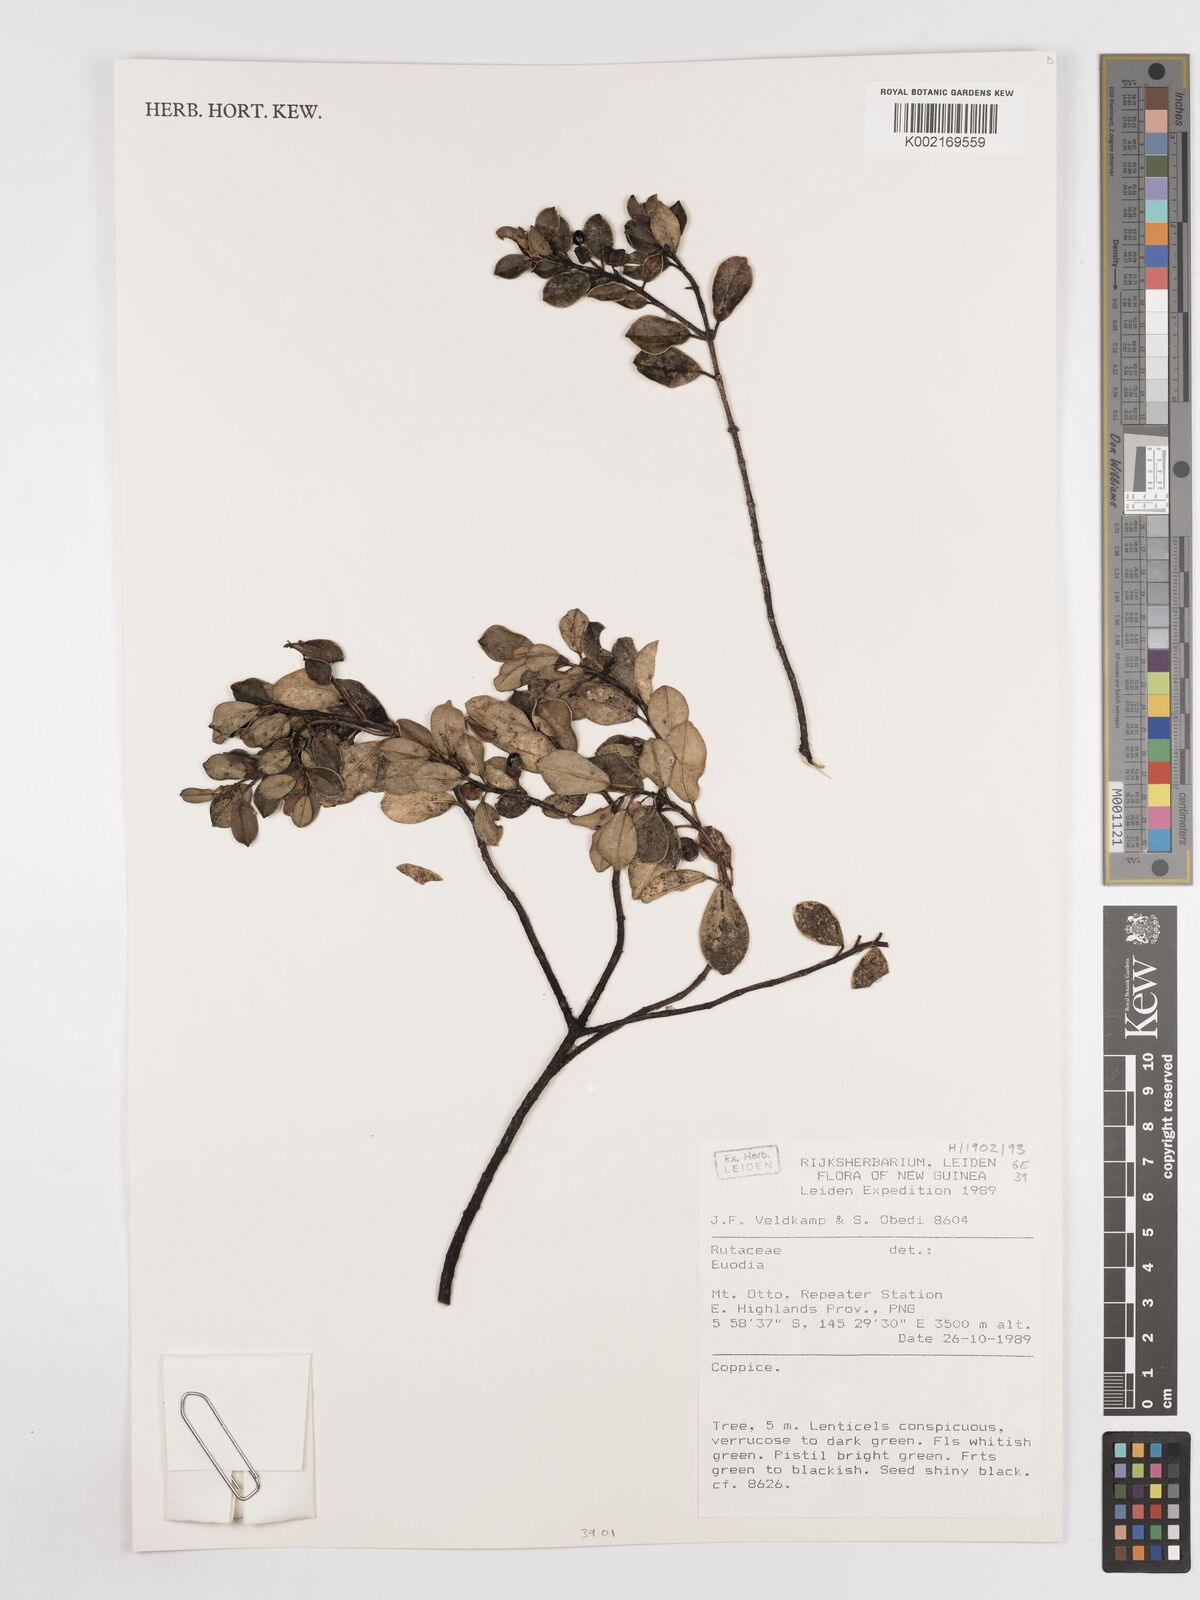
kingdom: Plantae
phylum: Tracheophyta
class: Magnoliopsida
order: Sapindales
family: Rutaceae
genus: Euodia
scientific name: Euodia
